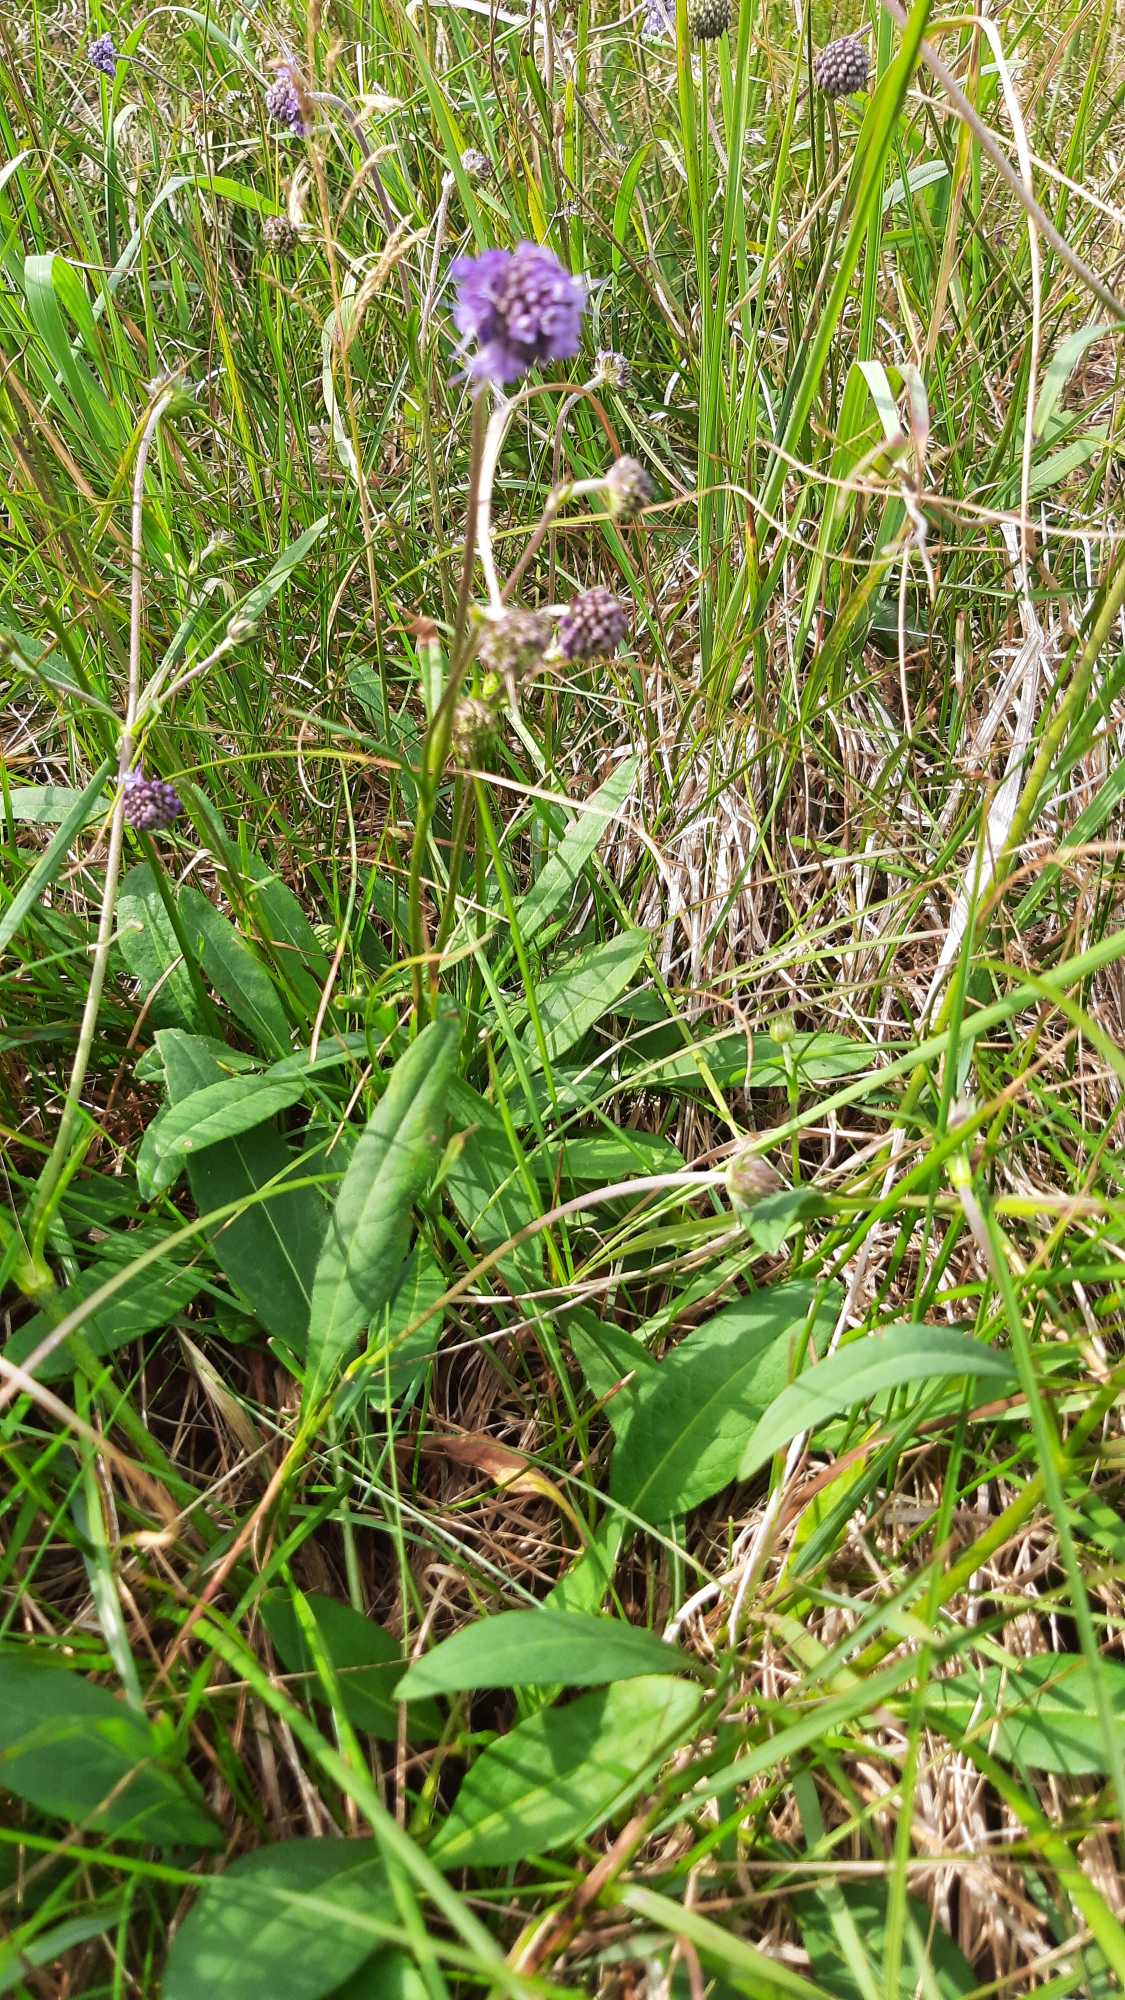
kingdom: Plantae
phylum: Tracheophyta
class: Magnoliopsida
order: Dipsacales
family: Caprifoliaceae
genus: Succisa
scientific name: Succisa pratensis
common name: Djævelsbid
